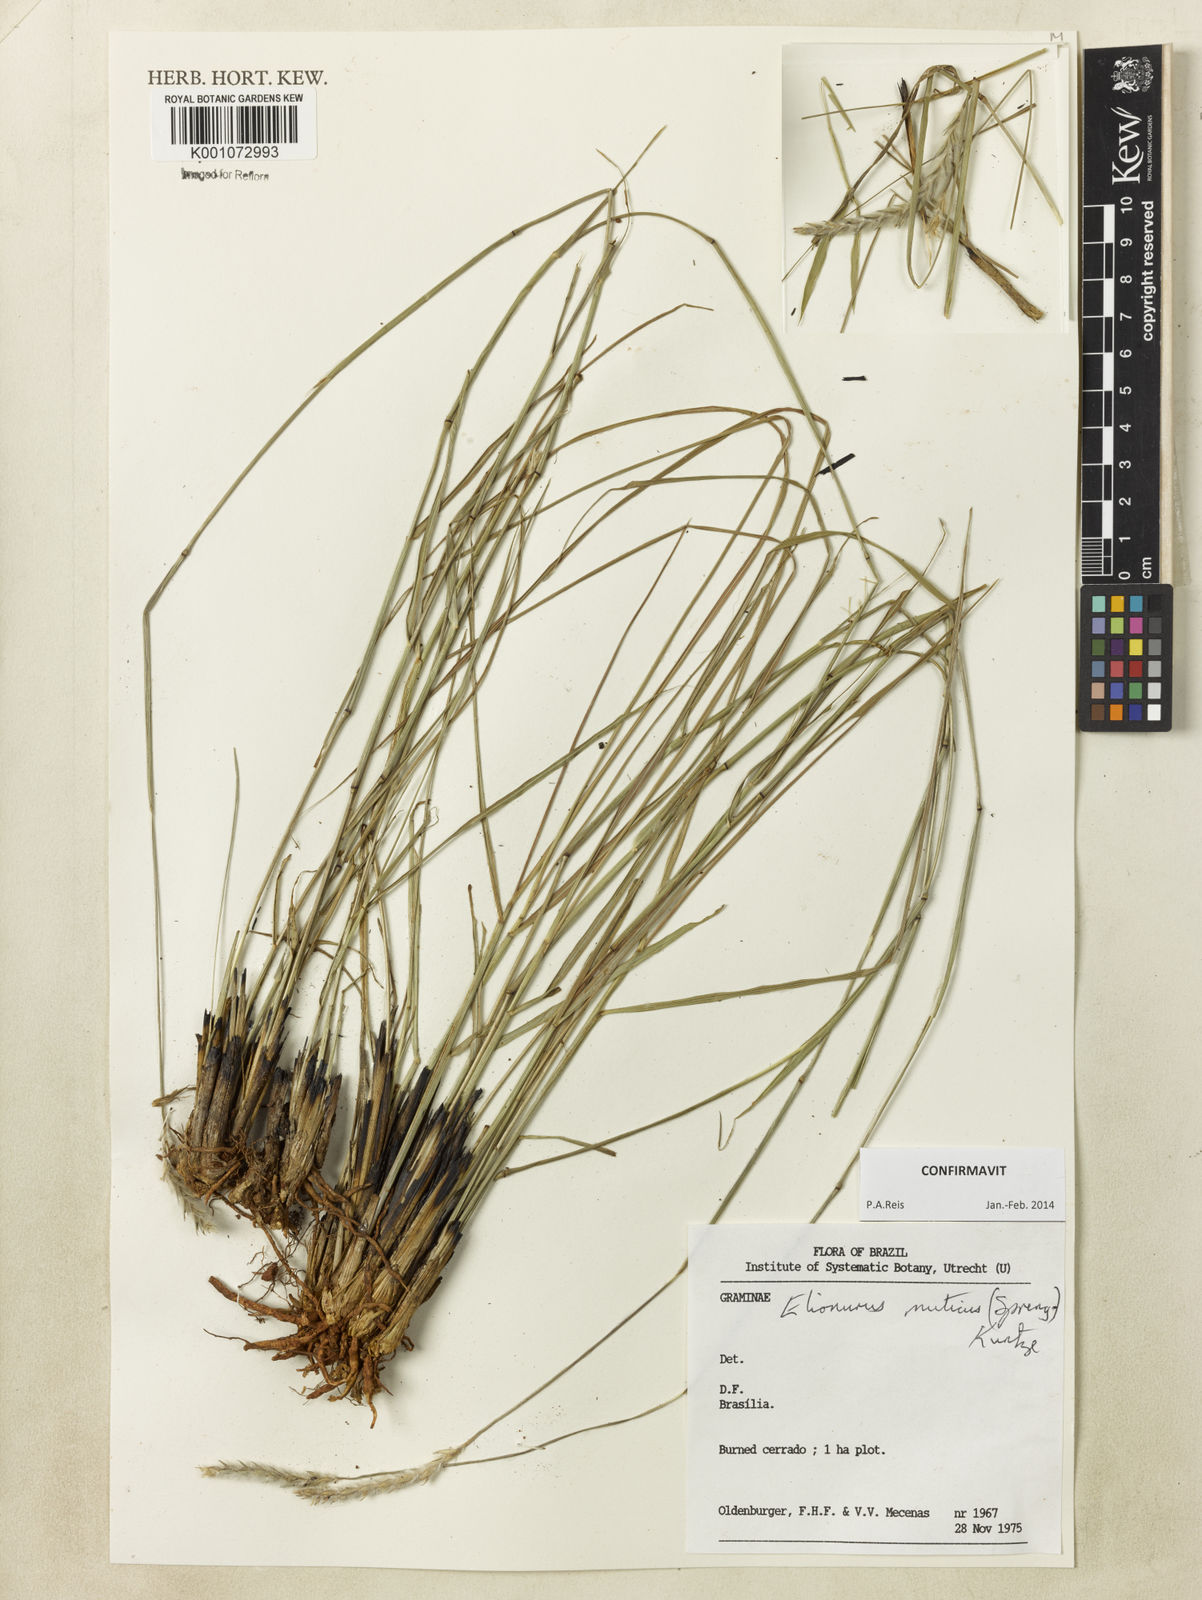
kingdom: Plantae
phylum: Tracheophyta
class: Liliopsida
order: Poales
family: Poaceae
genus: Elionurus
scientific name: Elionurus muticus
